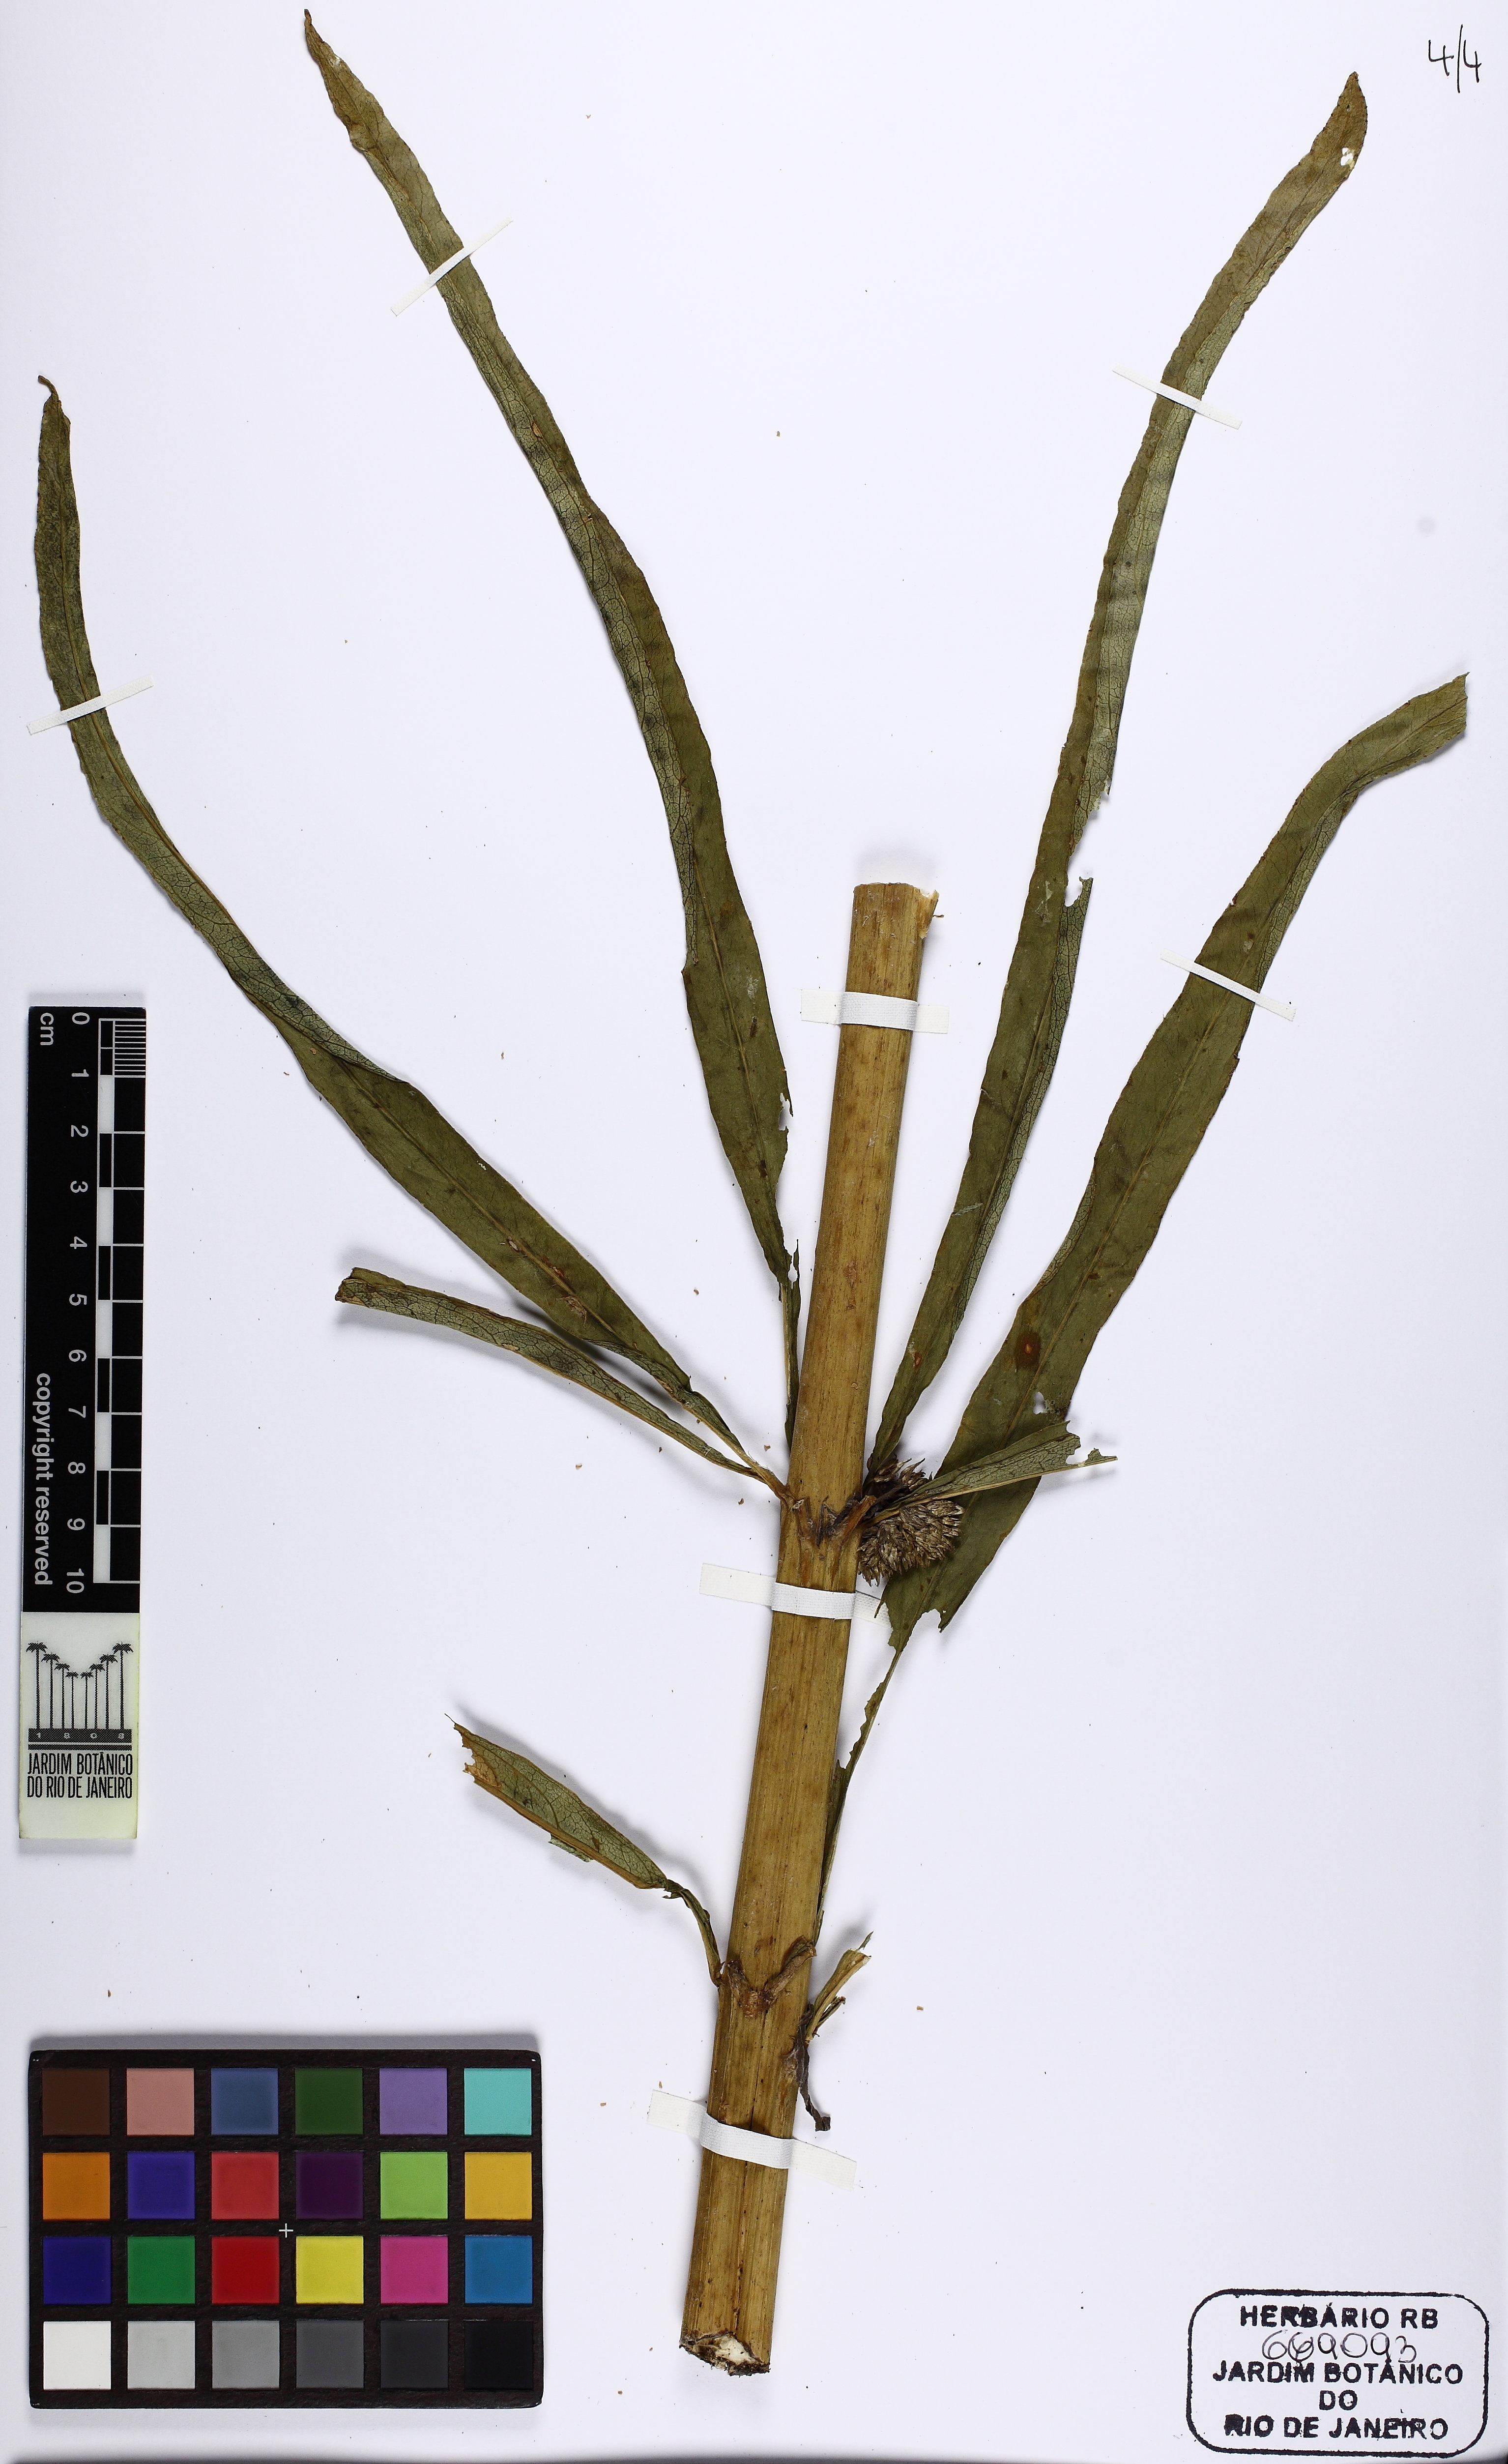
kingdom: Plantae
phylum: Tracheophyta
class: Magnoliopsida
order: Asterales
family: Campanulaceae
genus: Siphocampylus
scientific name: Siphocampylus sulfureus
